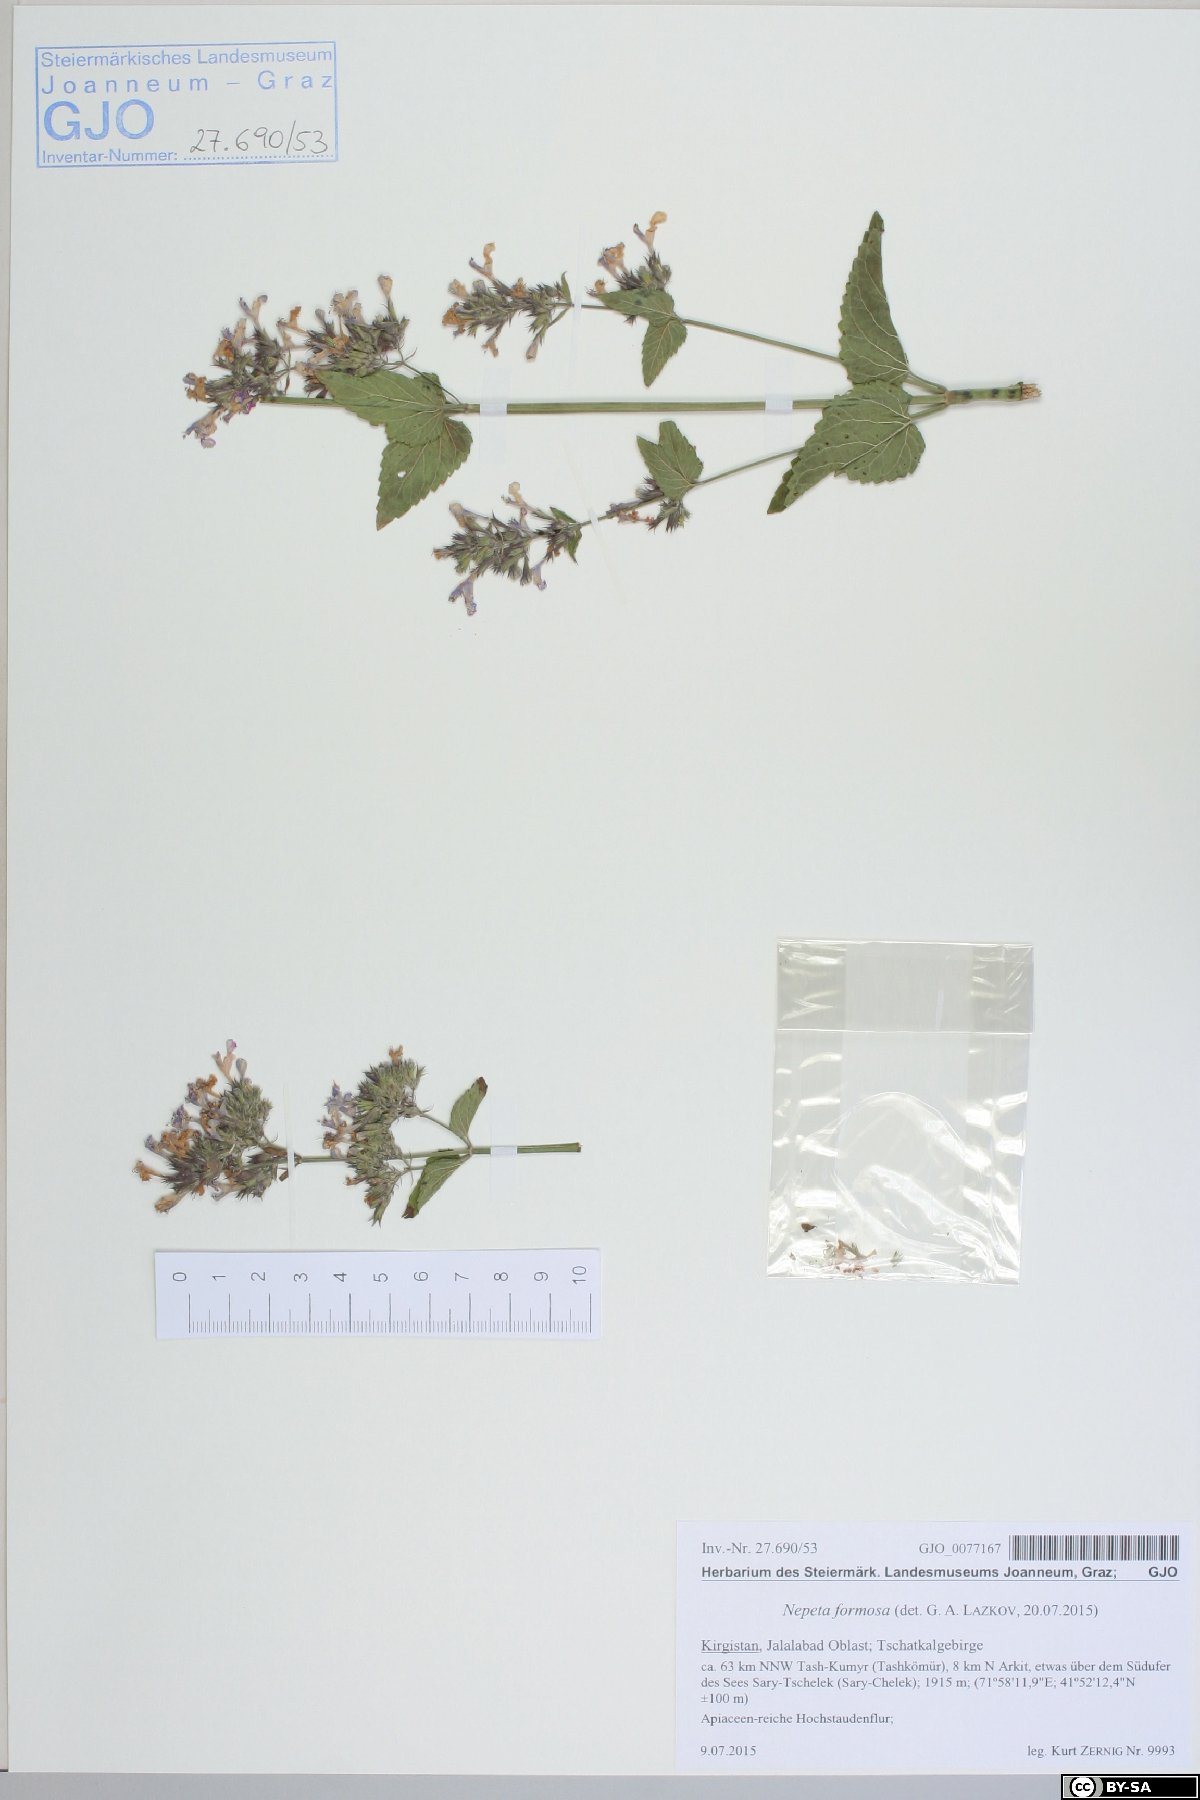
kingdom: Plantae
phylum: Tracheophyta
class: Magnoliopsida
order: Lamiales
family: Lamiaceae
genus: Nepeta
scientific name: Nepeta formosa
